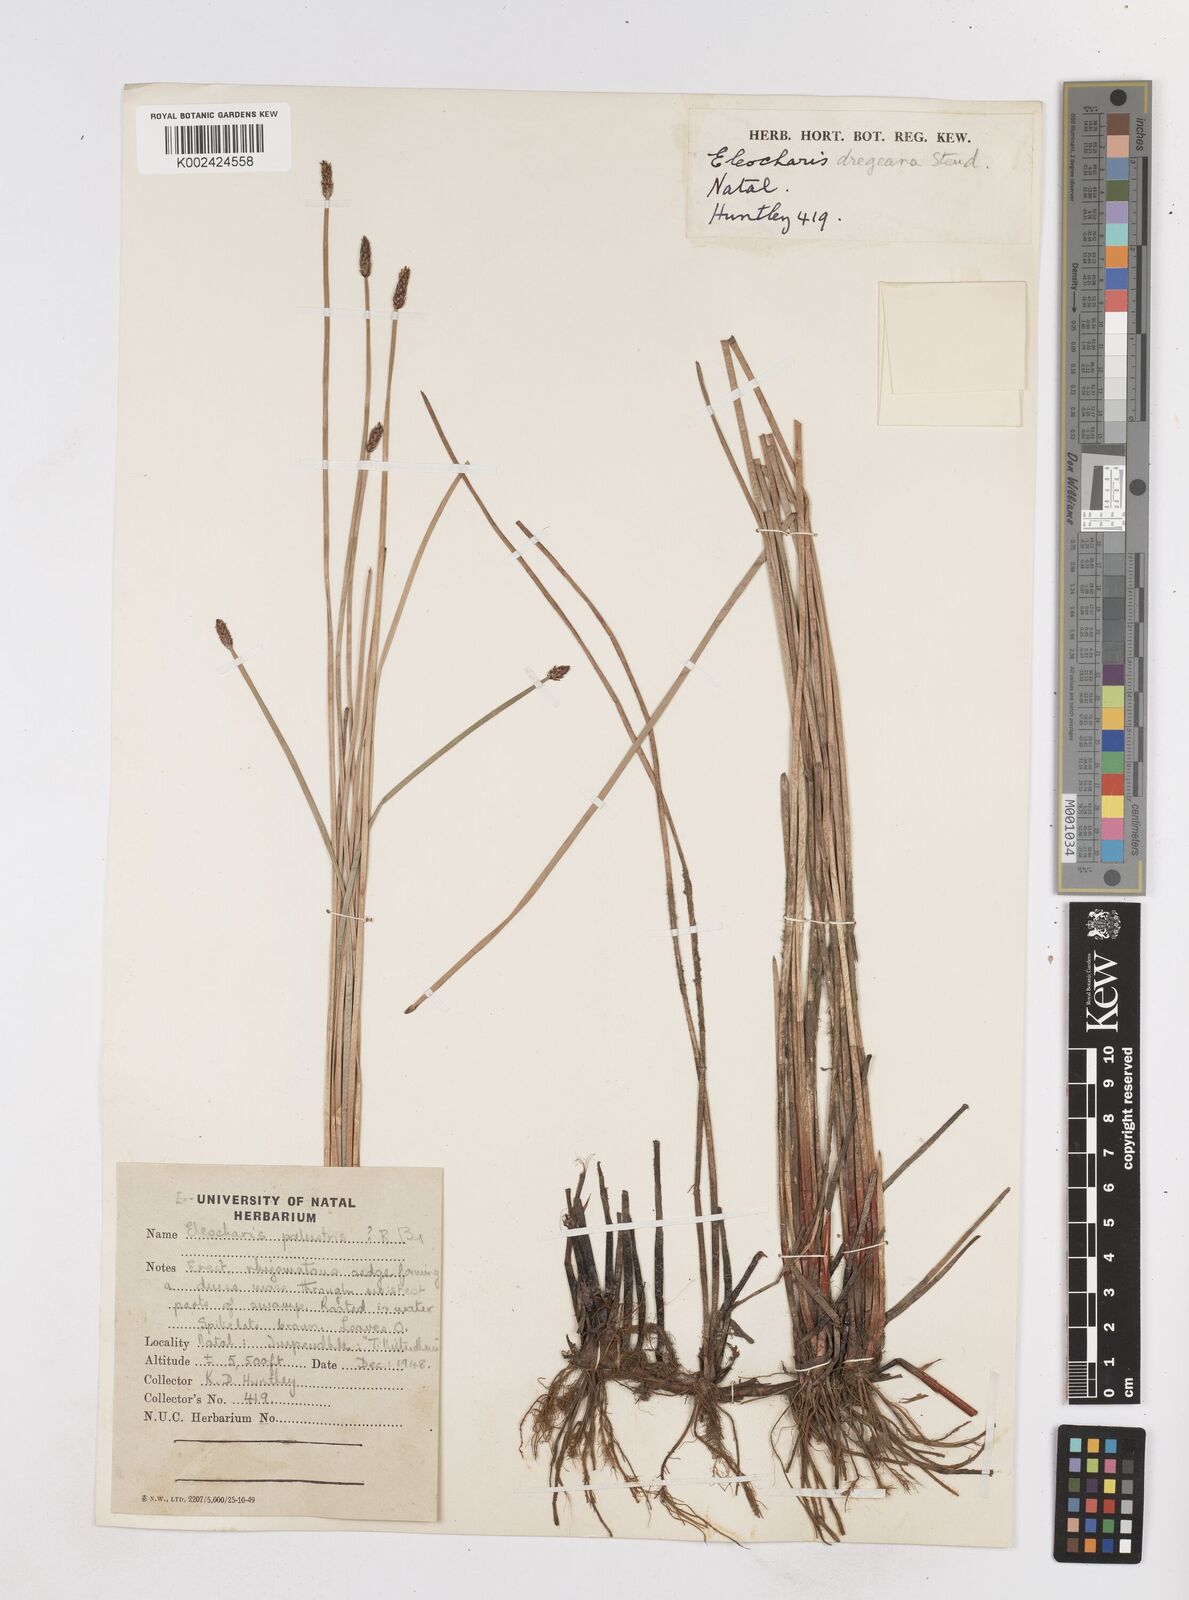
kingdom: Plantae
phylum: Tracheophyta
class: Liliopsida
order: Poales
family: Cyperaceae
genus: Eleocharis
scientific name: Eleocharis
